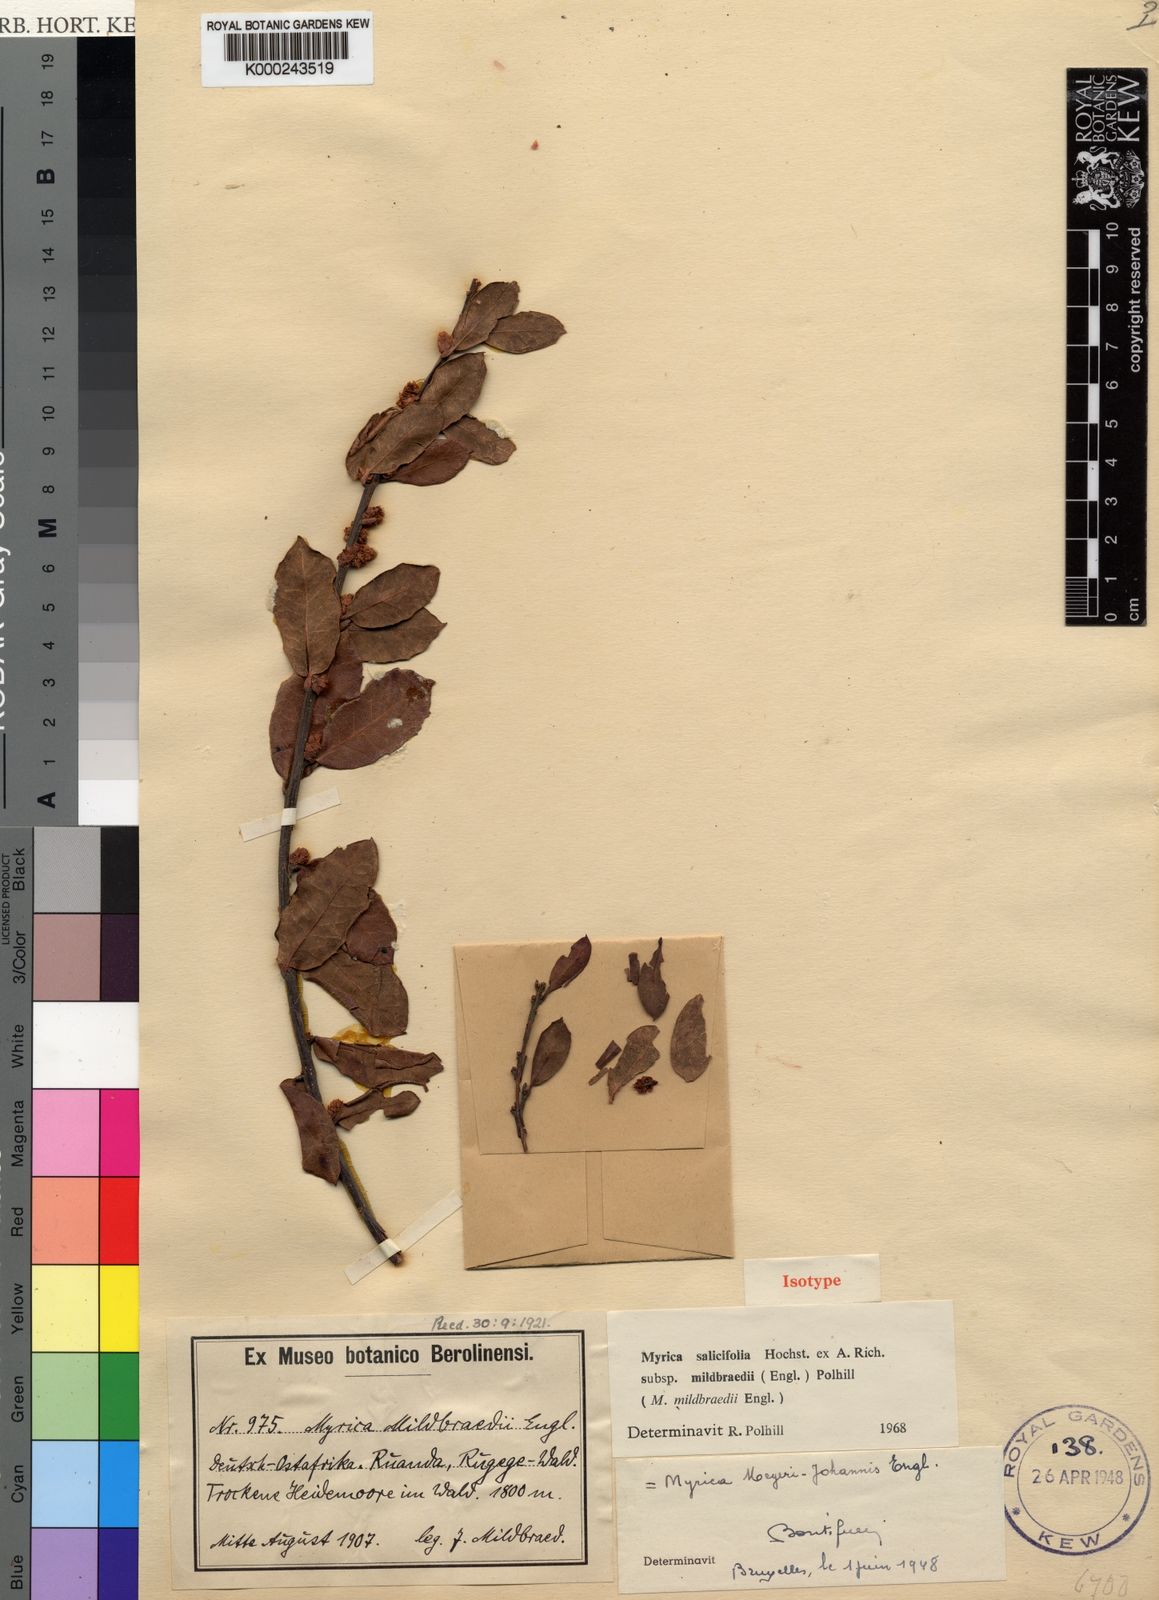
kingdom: Plantae
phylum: Tracheophyta
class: Magnoliopsida
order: Fagales
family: Myricaceae
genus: Morella
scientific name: Morella salicifolia
